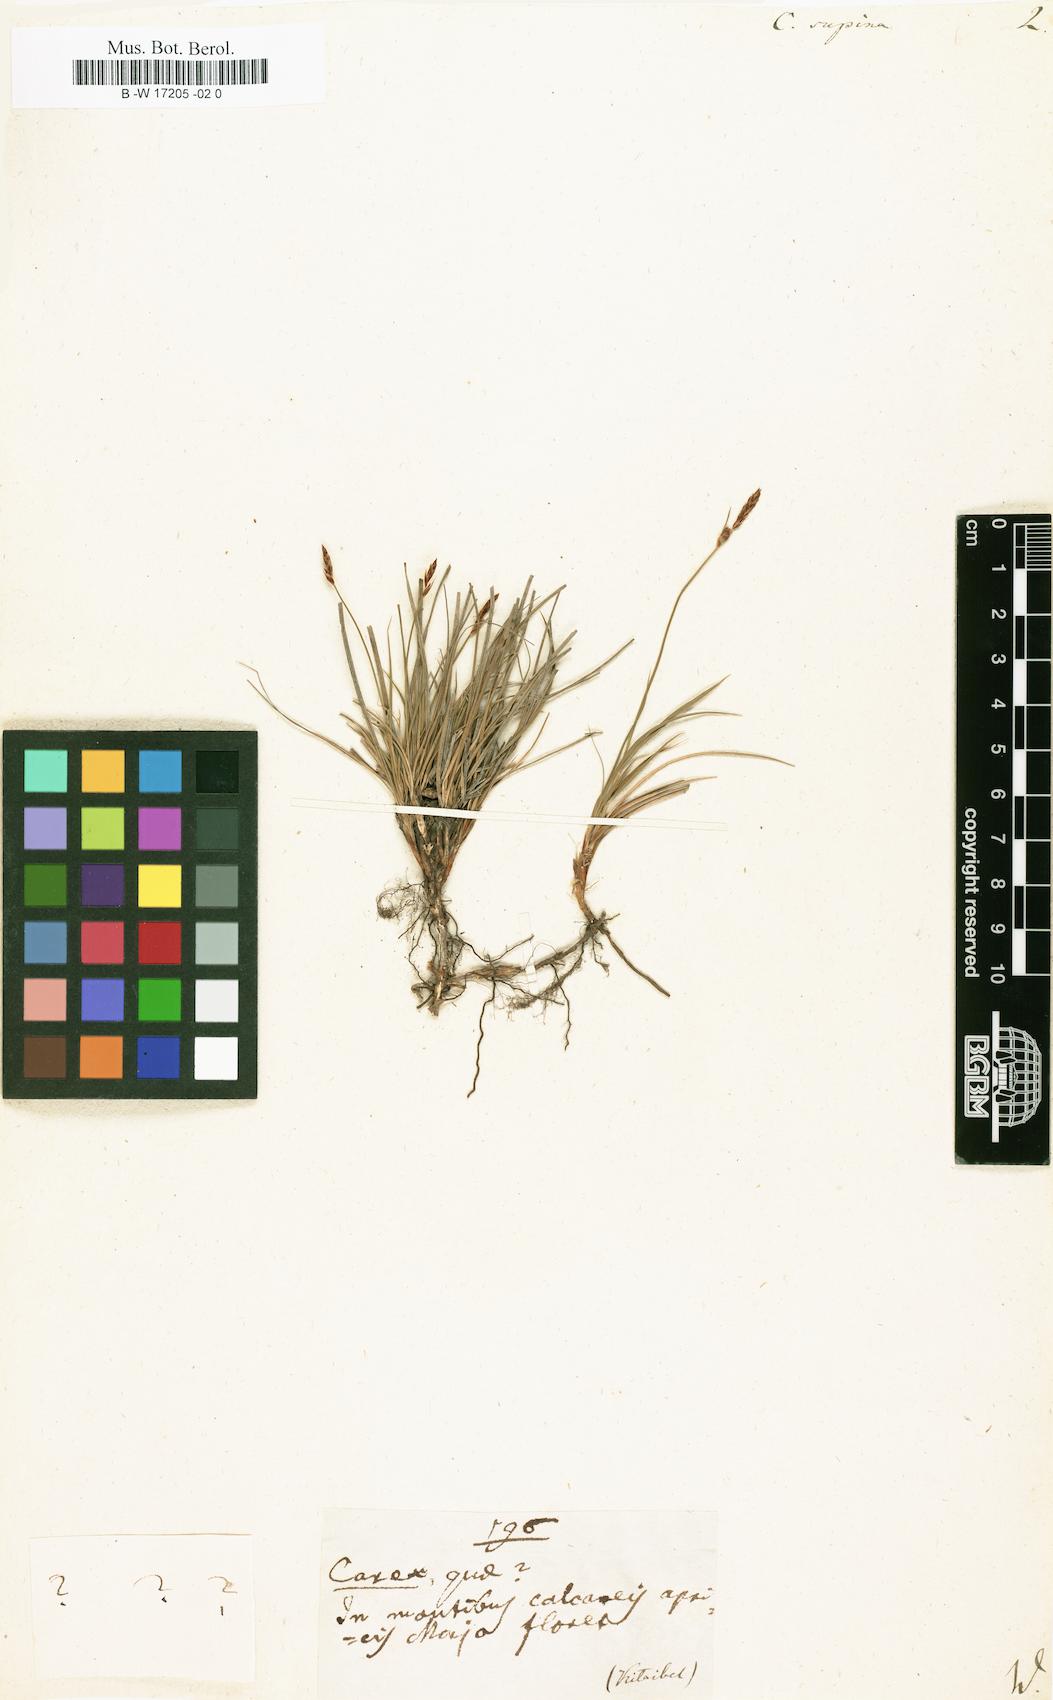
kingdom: Plantae
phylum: Tracheophyta
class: Liliopsida
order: Poales
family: Cyperaceae
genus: Carex
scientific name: Carex supina
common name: Lying-back sedge
